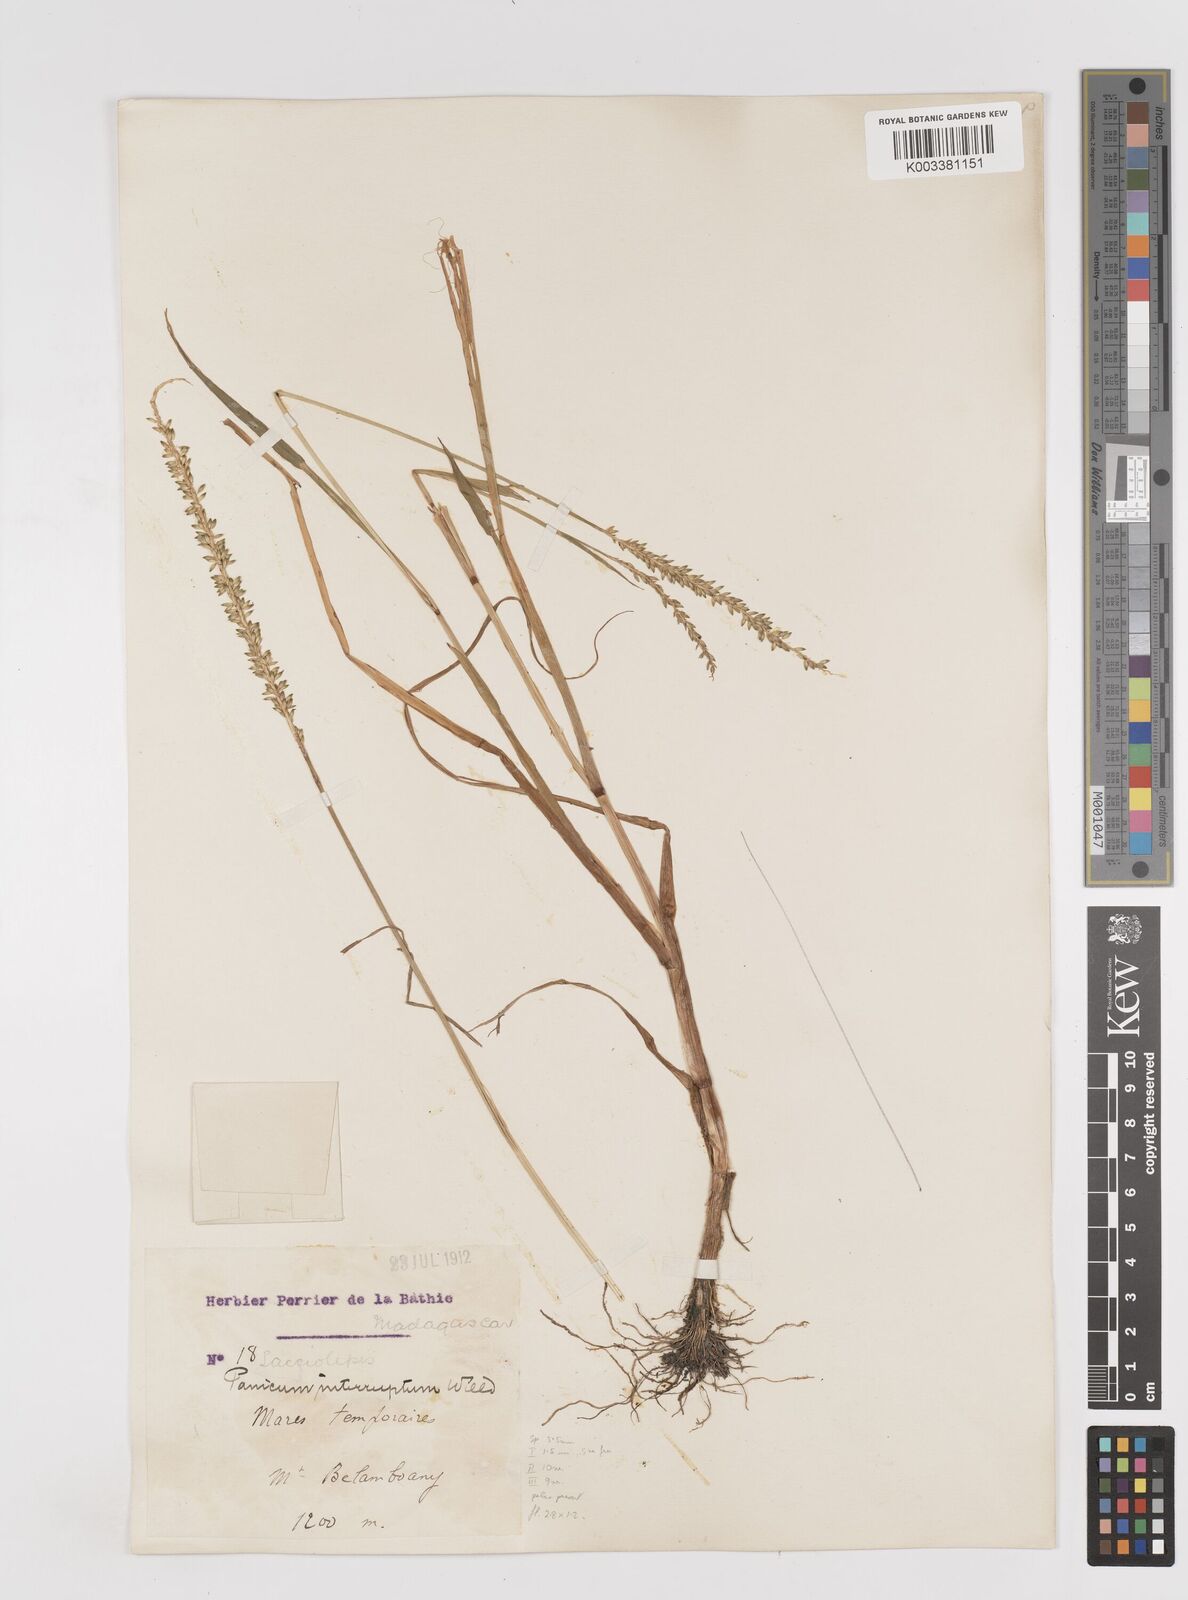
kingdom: Plantae
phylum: Tracheophyta
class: Liliopsida
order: Poales
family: Poaceae
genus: Sacciolepis
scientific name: Sacciolepis africana
